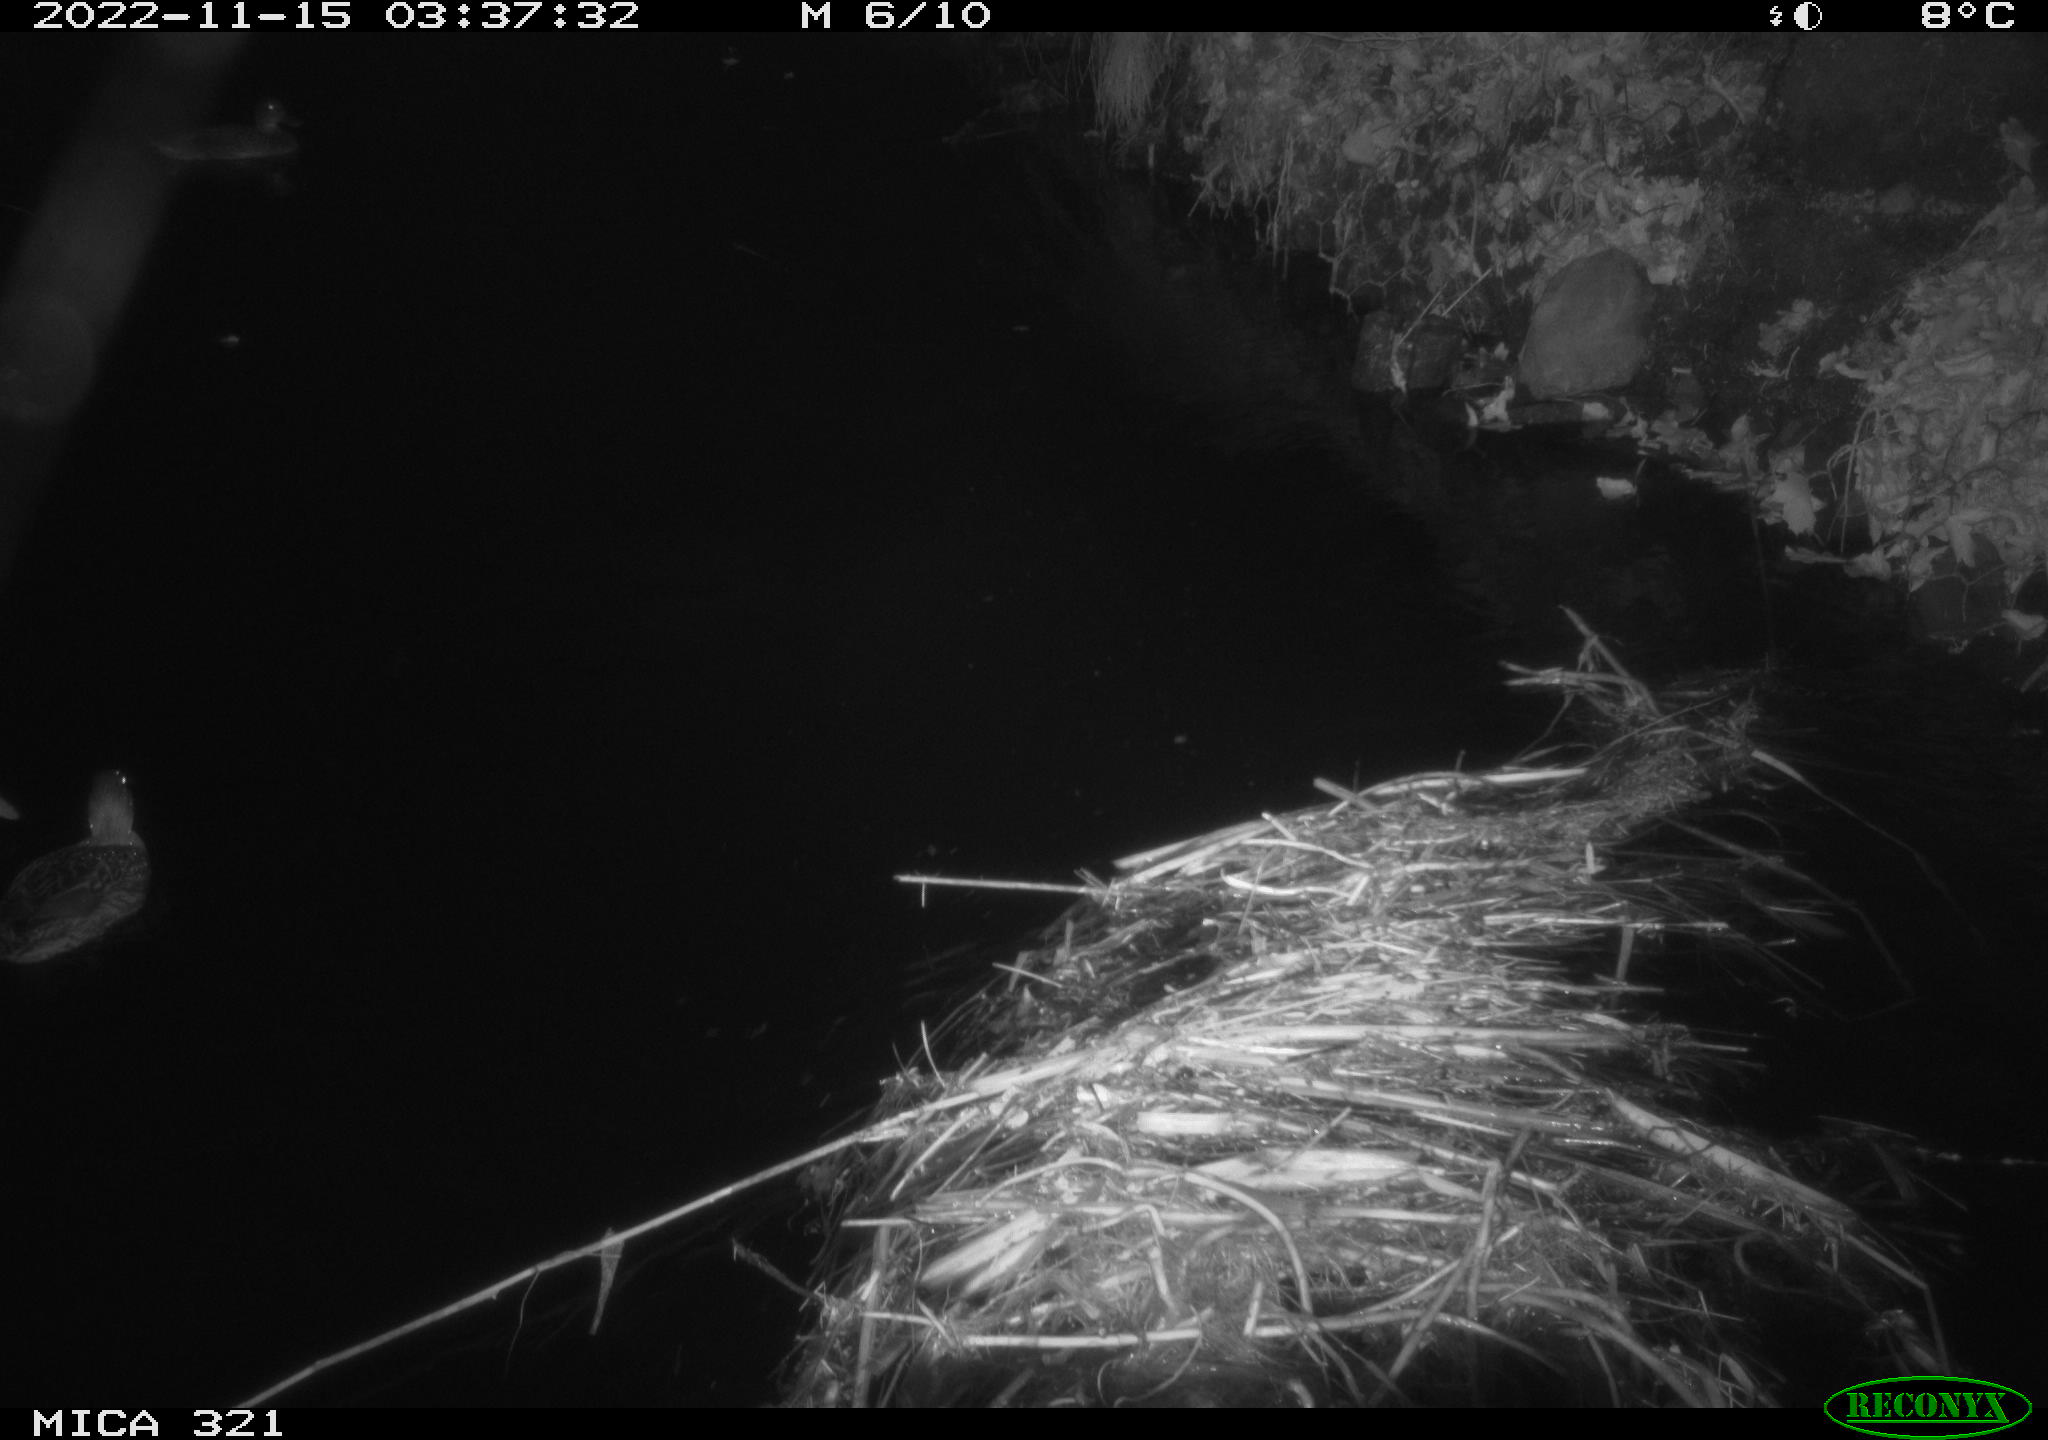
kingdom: Animalia
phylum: Chordata
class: Aves
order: Anseriformes
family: Anatidae
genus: Anas
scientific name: Anas
